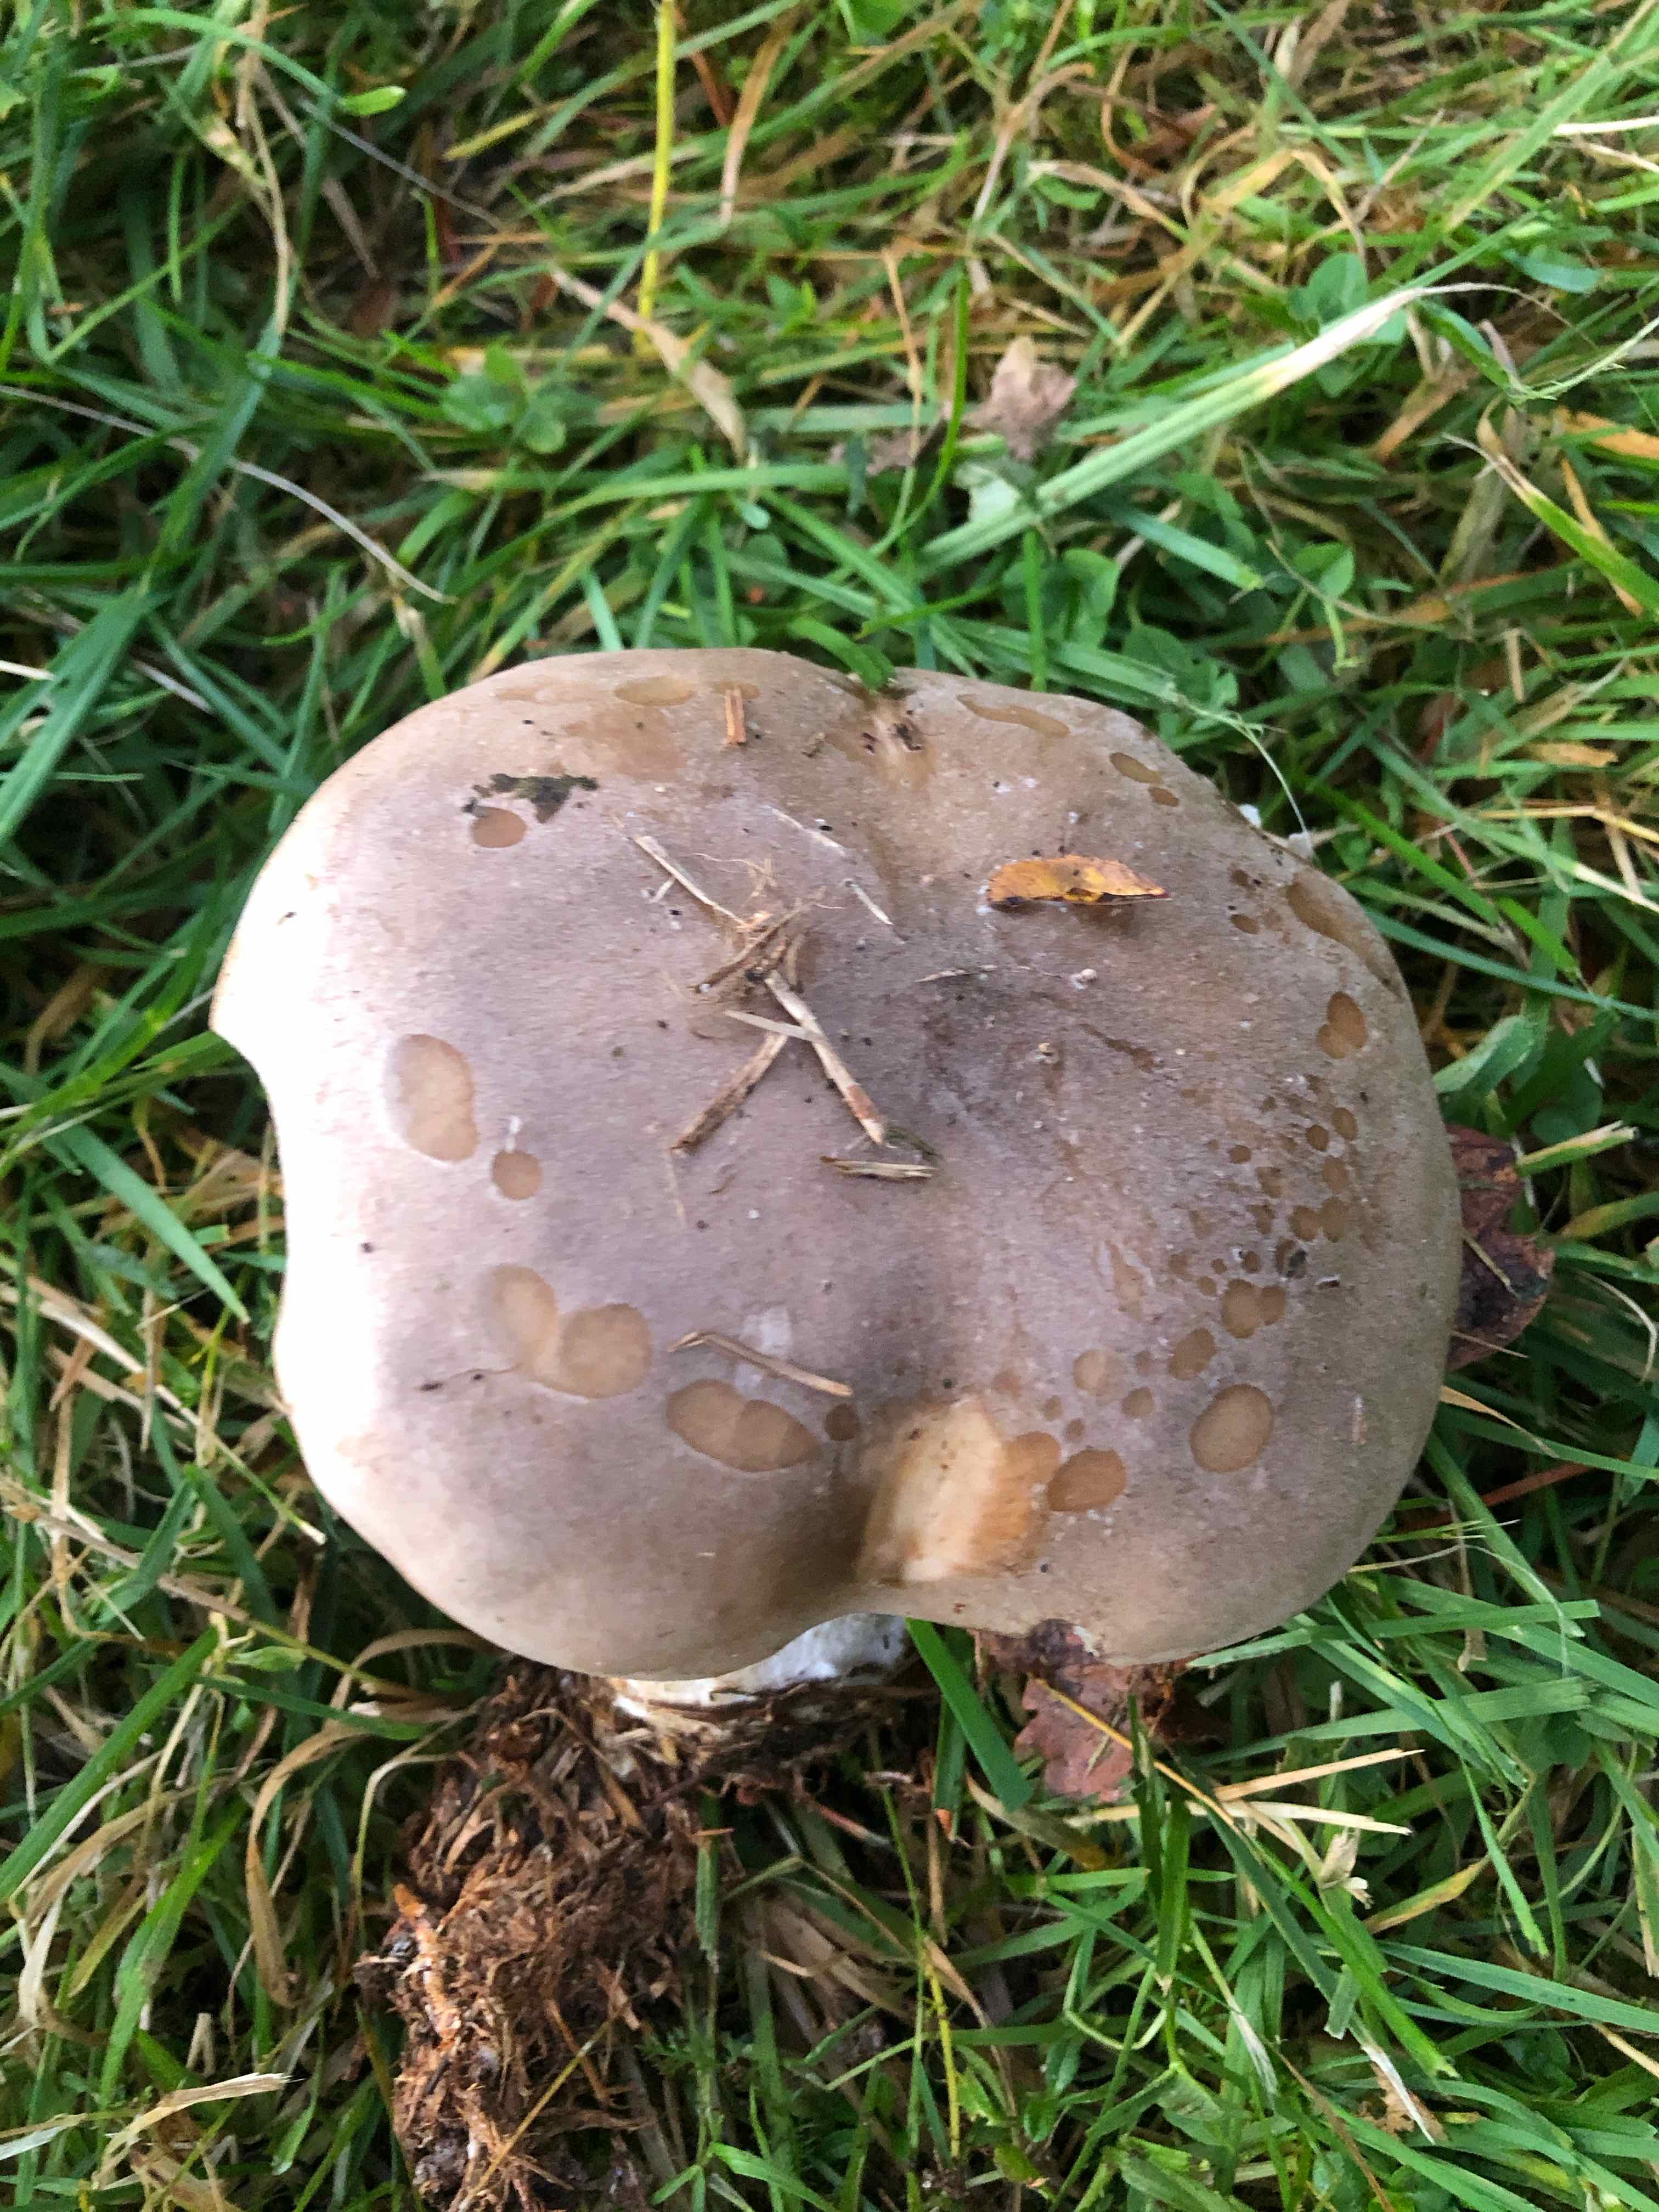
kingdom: Fungi
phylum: Basidiomycota
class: Agaricomycetes
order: Agaricales
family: Tricholomataceae
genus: Clitocybe
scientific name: Clitocybe nebularis
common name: tåge-tragthat
